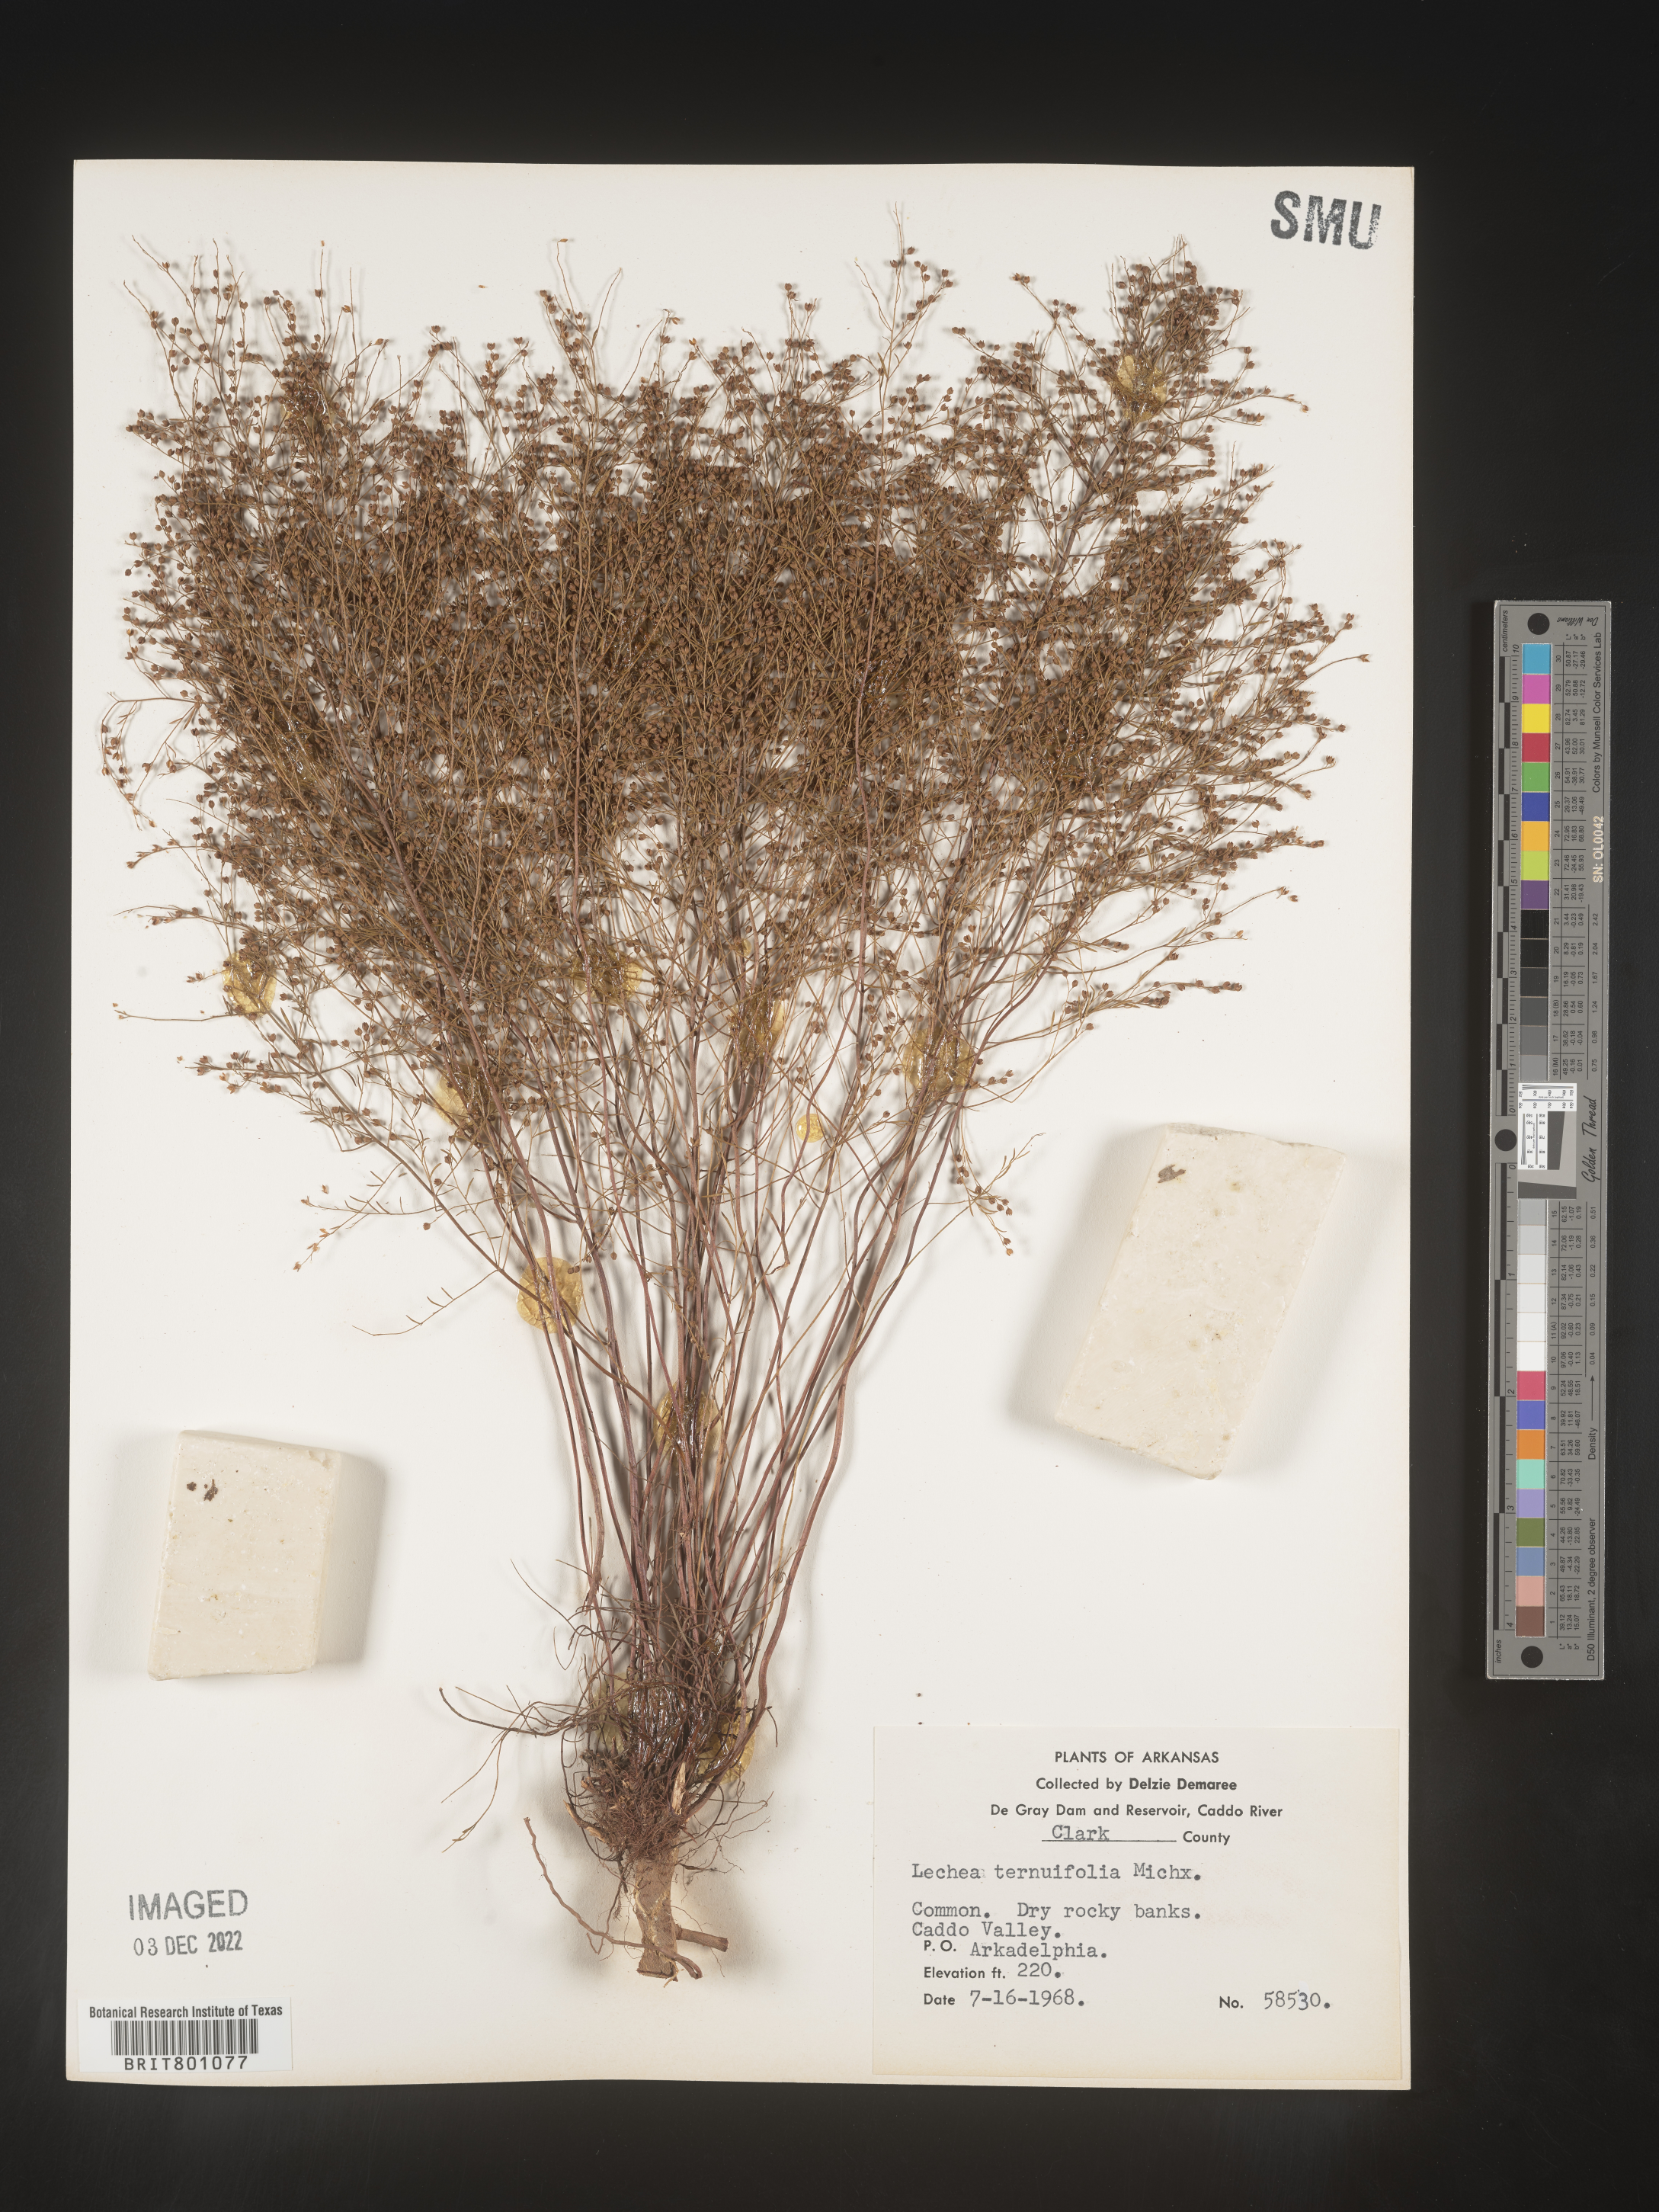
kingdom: Plantae
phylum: Tracheophyta
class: Magnoliopsida
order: Malvales
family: Cistaceae
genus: Lechea
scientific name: Lechea tenuifolia
